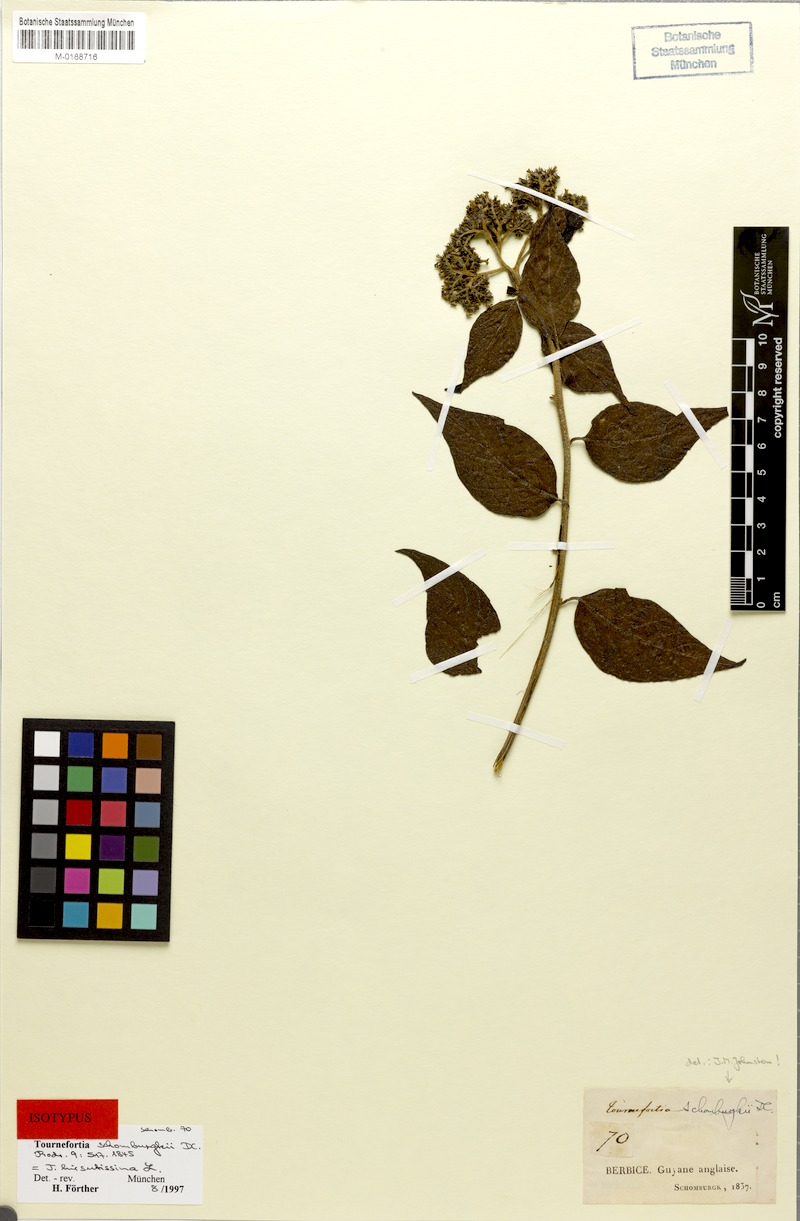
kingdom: Plantae
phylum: Tracheophyta
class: Magnoliopsida
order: Boraginales
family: Heliotropiaceae
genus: Heliotropium
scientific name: Heliotropium verdcourtii
